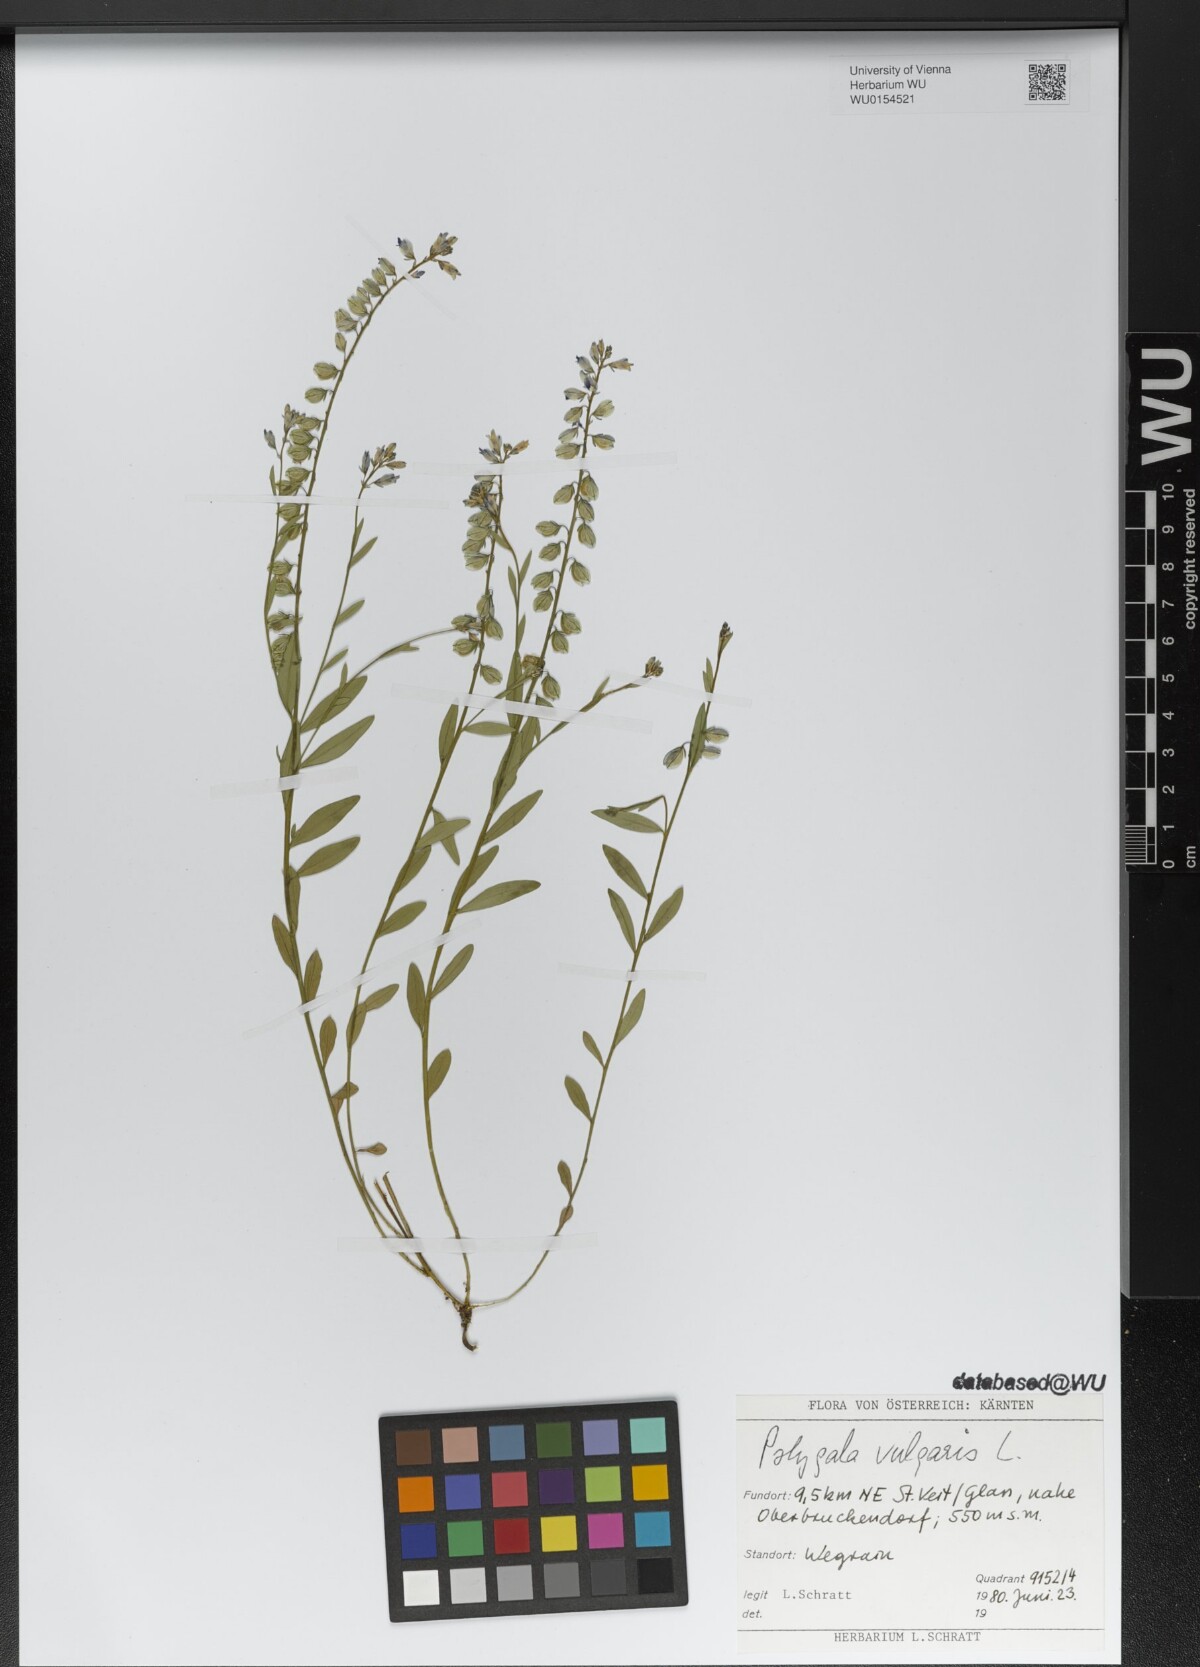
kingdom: Plantae
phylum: Tracheophyta
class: Magnoliopsida
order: Fabales
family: Polygalaceae
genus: Polygala
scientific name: Polygala vulgaris
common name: Common milkwort
